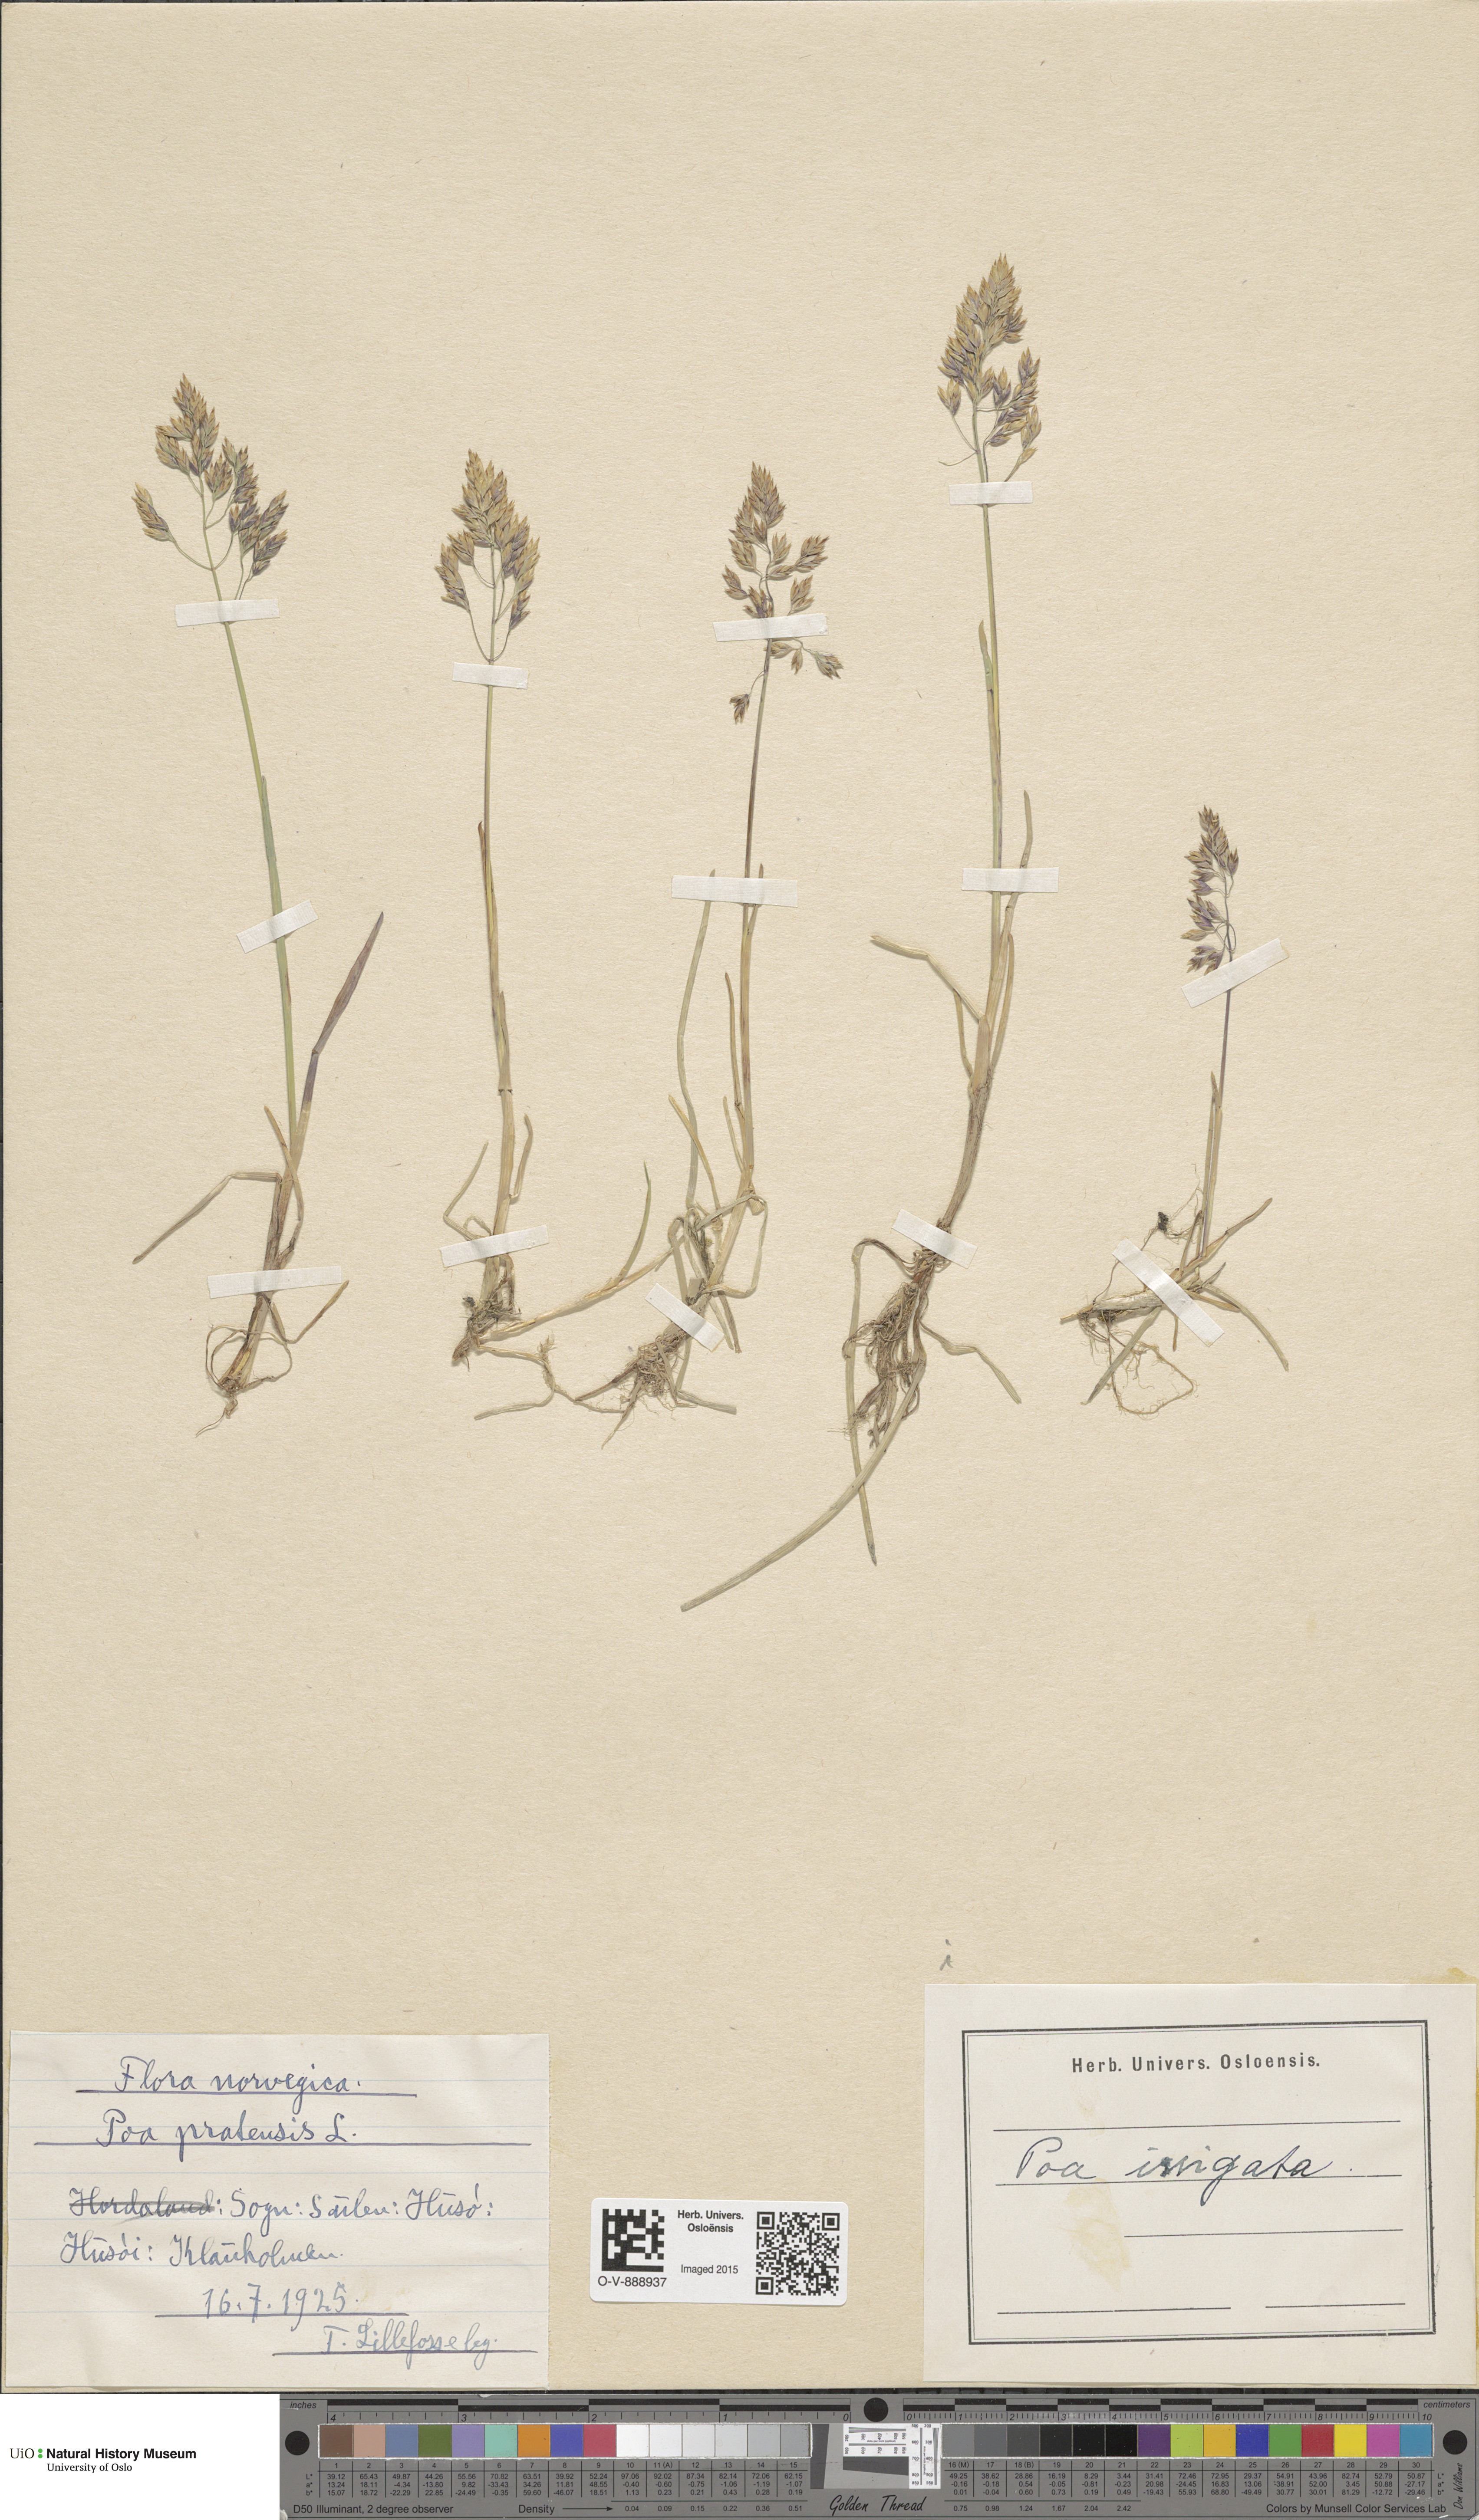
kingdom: Plantae
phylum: Tracheophyta
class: Liliopsida
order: Poales
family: Poaceae
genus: Poa
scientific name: Poa humilis
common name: Spreading meadow-grass
